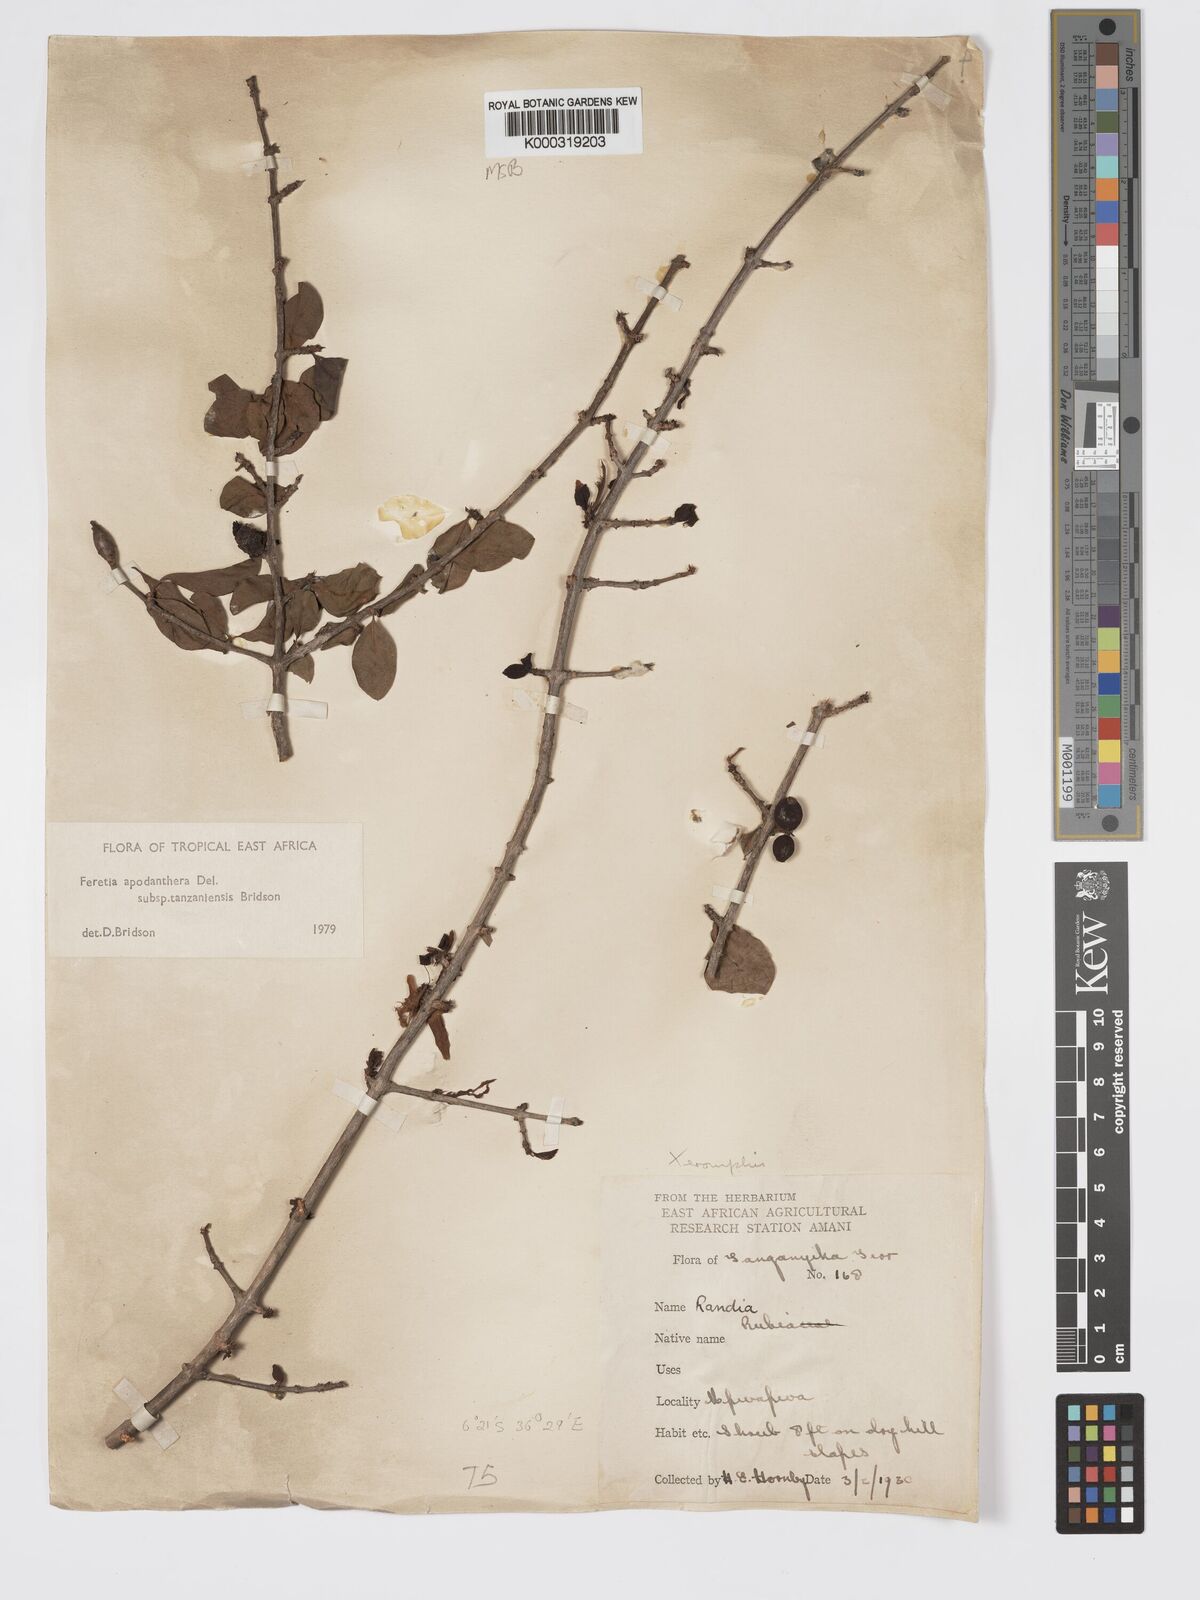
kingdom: Plantae
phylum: Tracheophyta
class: Magnoliopsida
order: Gentianales
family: Rubiaceae
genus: Feretia
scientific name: Feretia apodanthera
